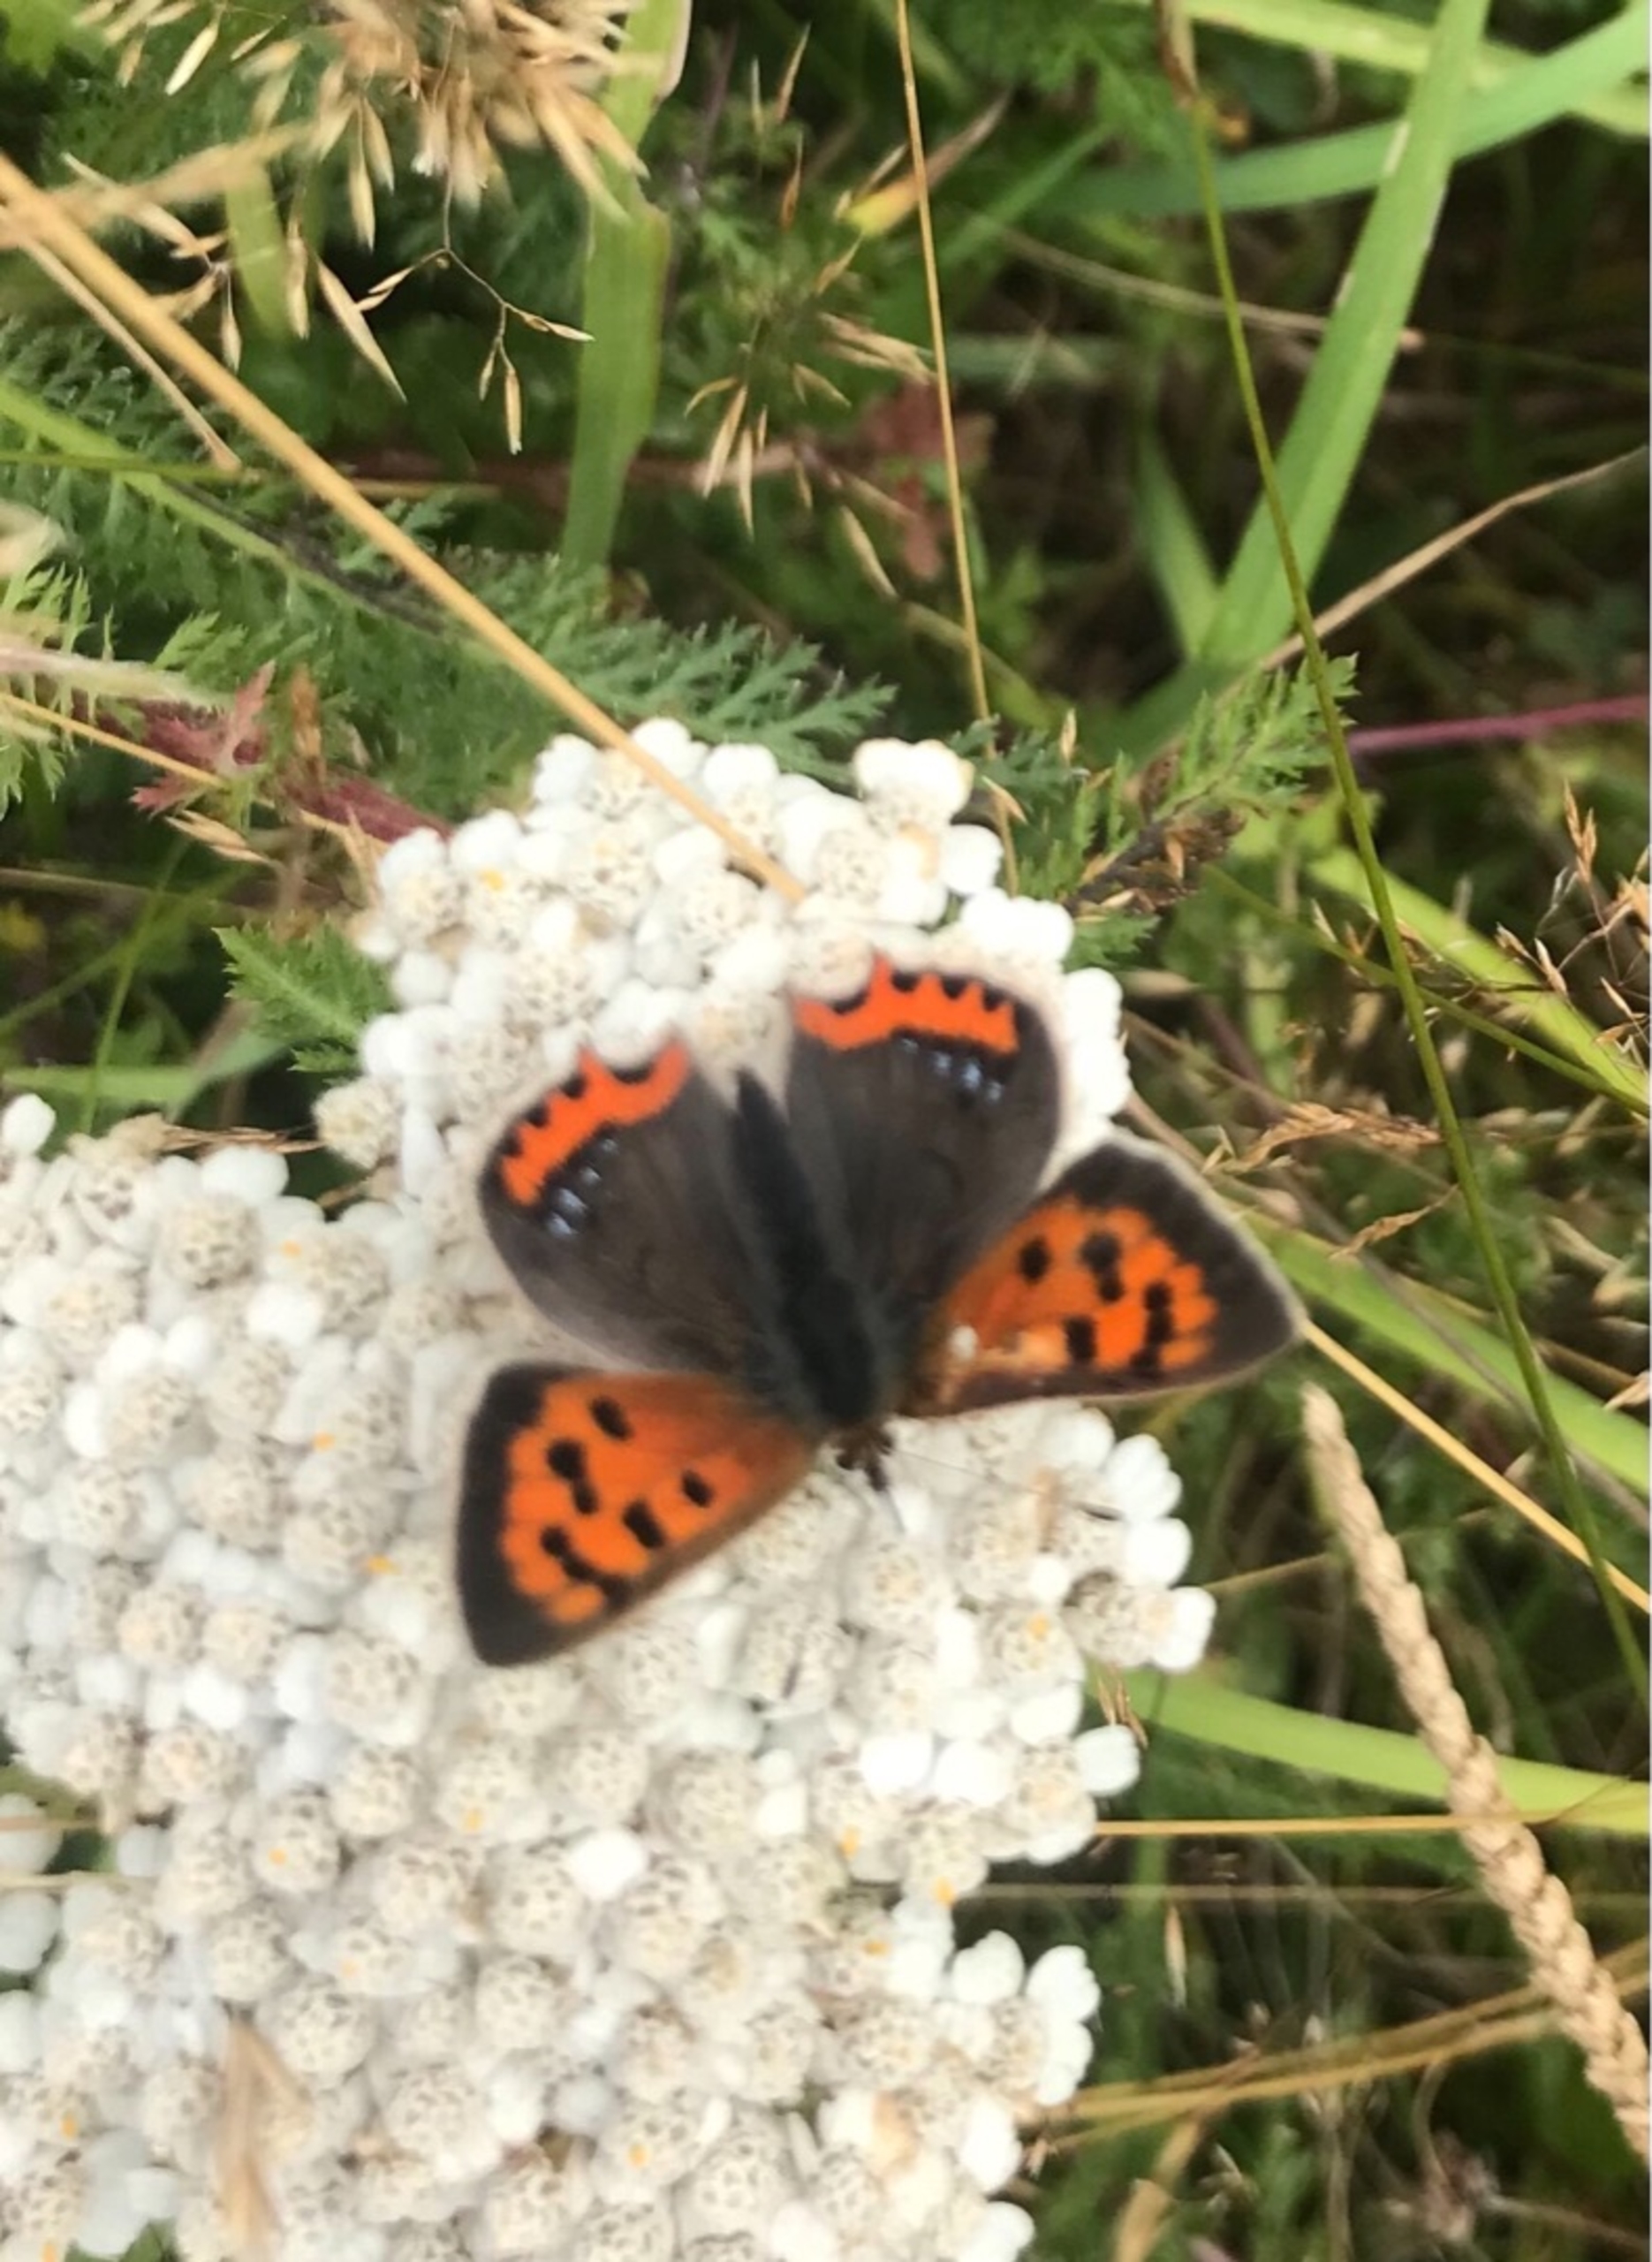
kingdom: Animalia
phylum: Arthropoda
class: Insecta
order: Lepidoptera
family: Lycaenidae
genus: Lycaena
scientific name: Lycaena phlaeas
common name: Lille ildfugl
